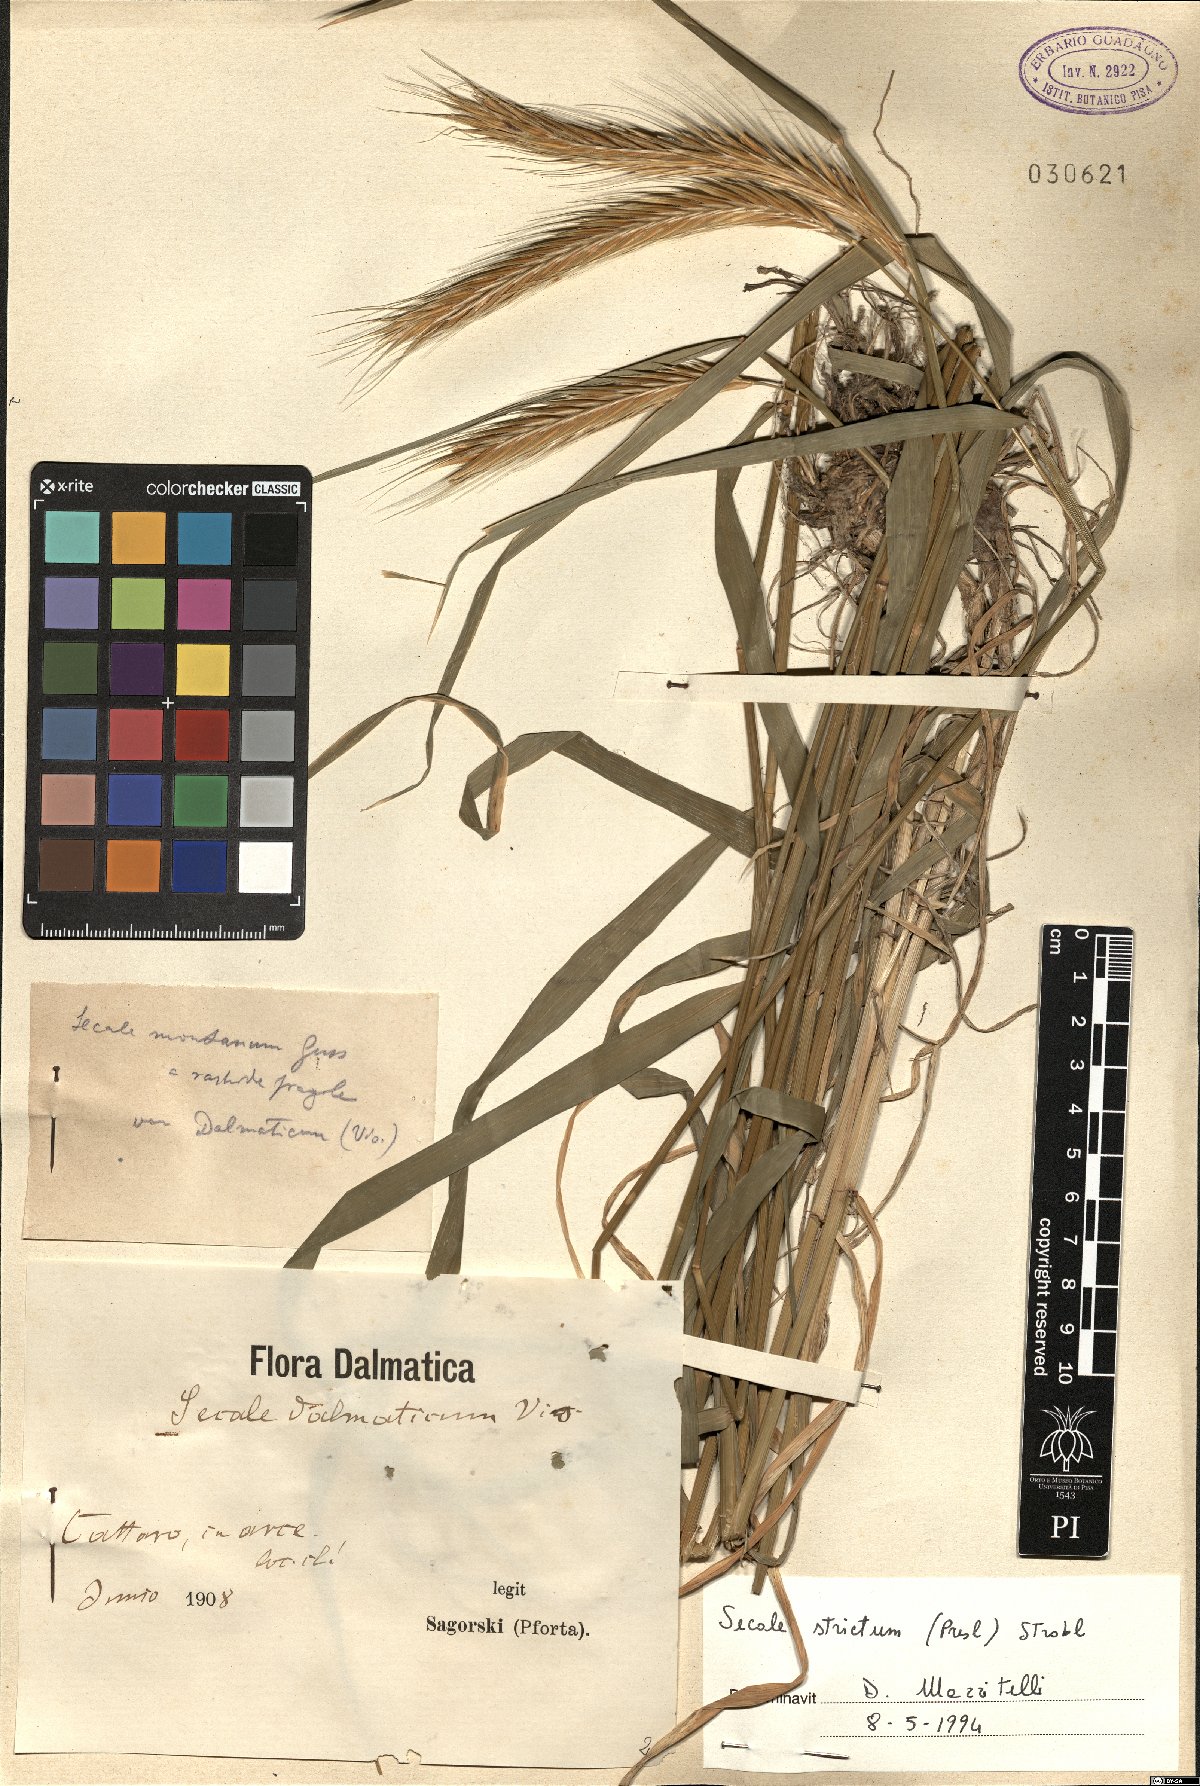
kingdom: Plantae
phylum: Tracheophyta
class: Liliopsida
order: Poales
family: Poaceae
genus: Secale
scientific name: Secale strictum
